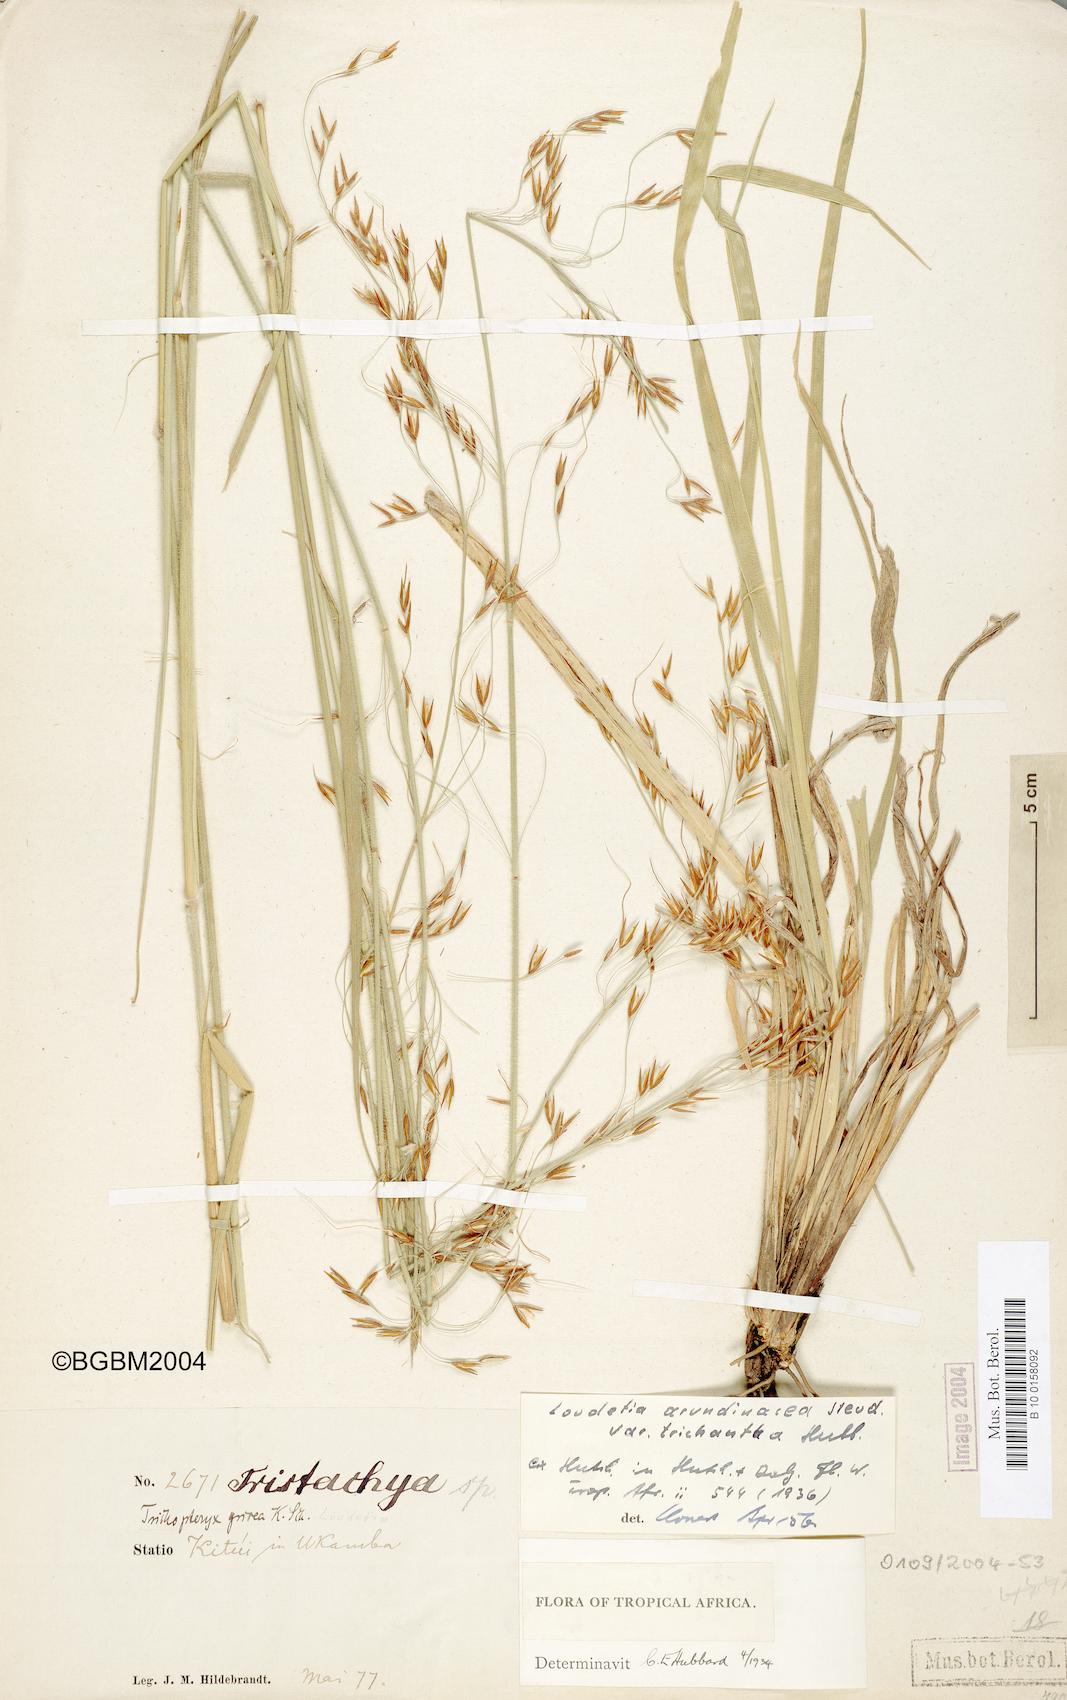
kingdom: Plantae
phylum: Tracheophyta
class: Liliopsida
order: Poales
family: Poaceae
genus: Loudetia
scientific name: Loudetia arundinacea
